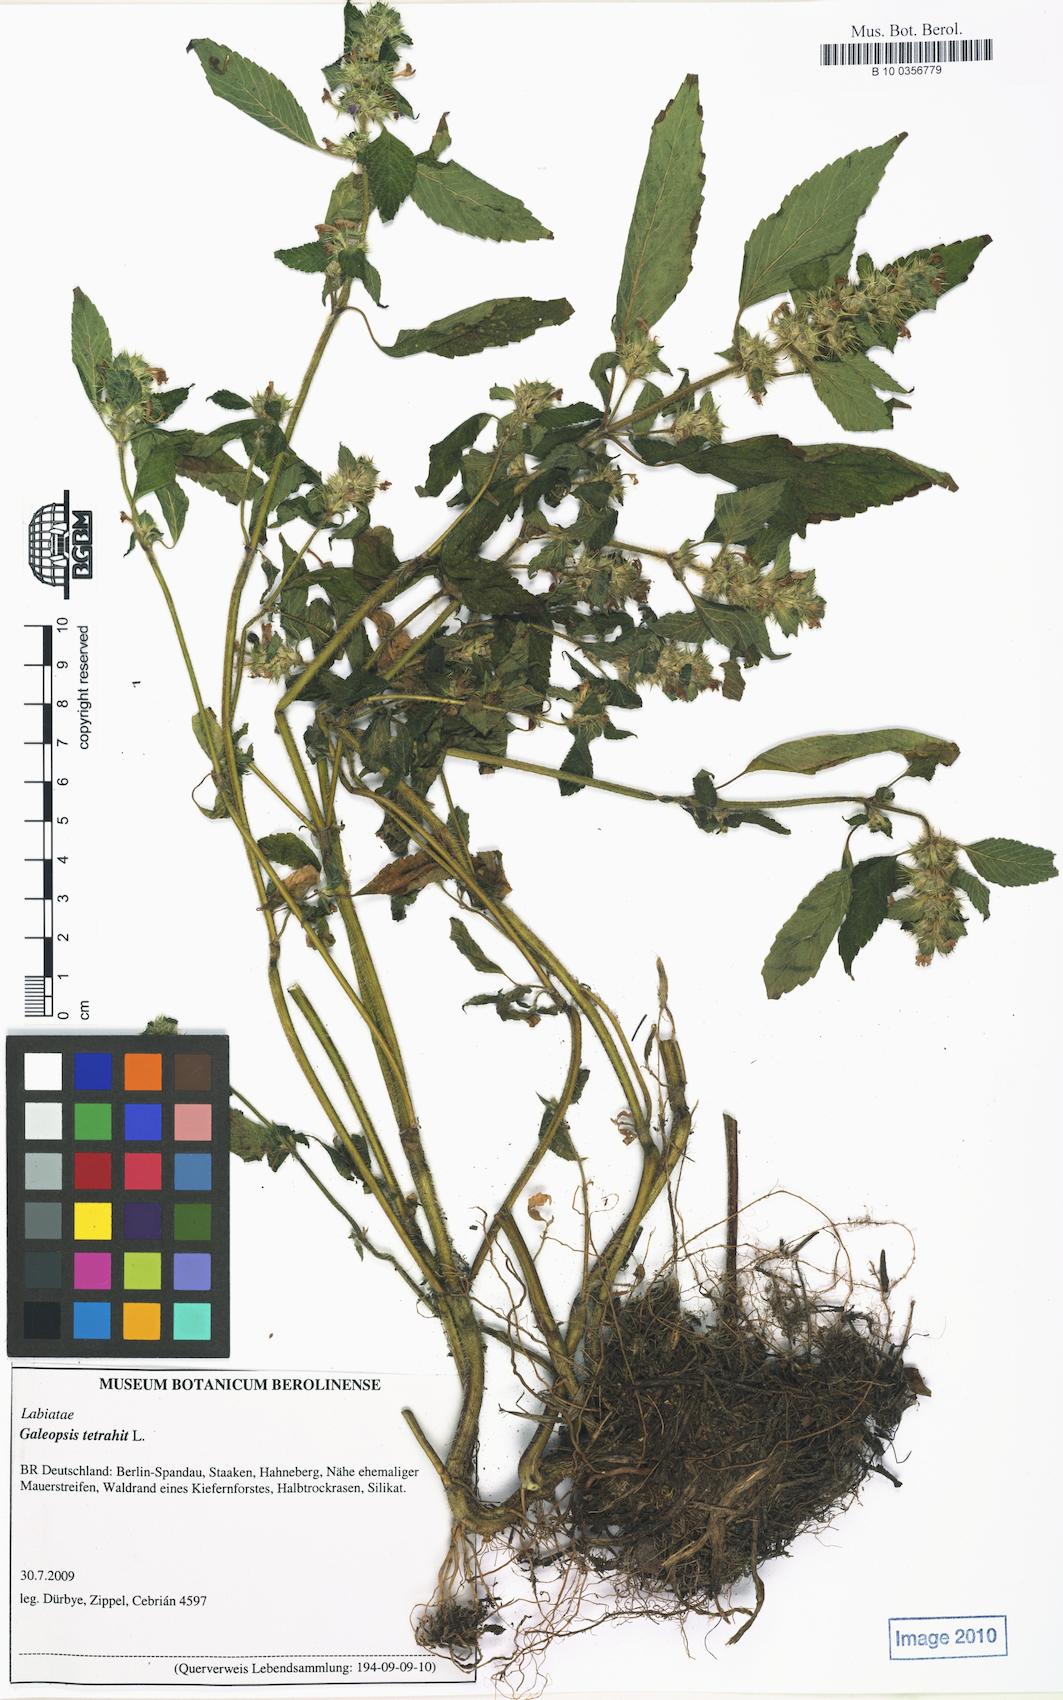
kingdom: Plantae
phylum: Tracheophyta
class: Magnoliopsida
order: Lamiales
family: Lamiaceae
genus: Galeopsis
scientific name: Galeopsis tetrahit
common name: Common hemp-nettle
